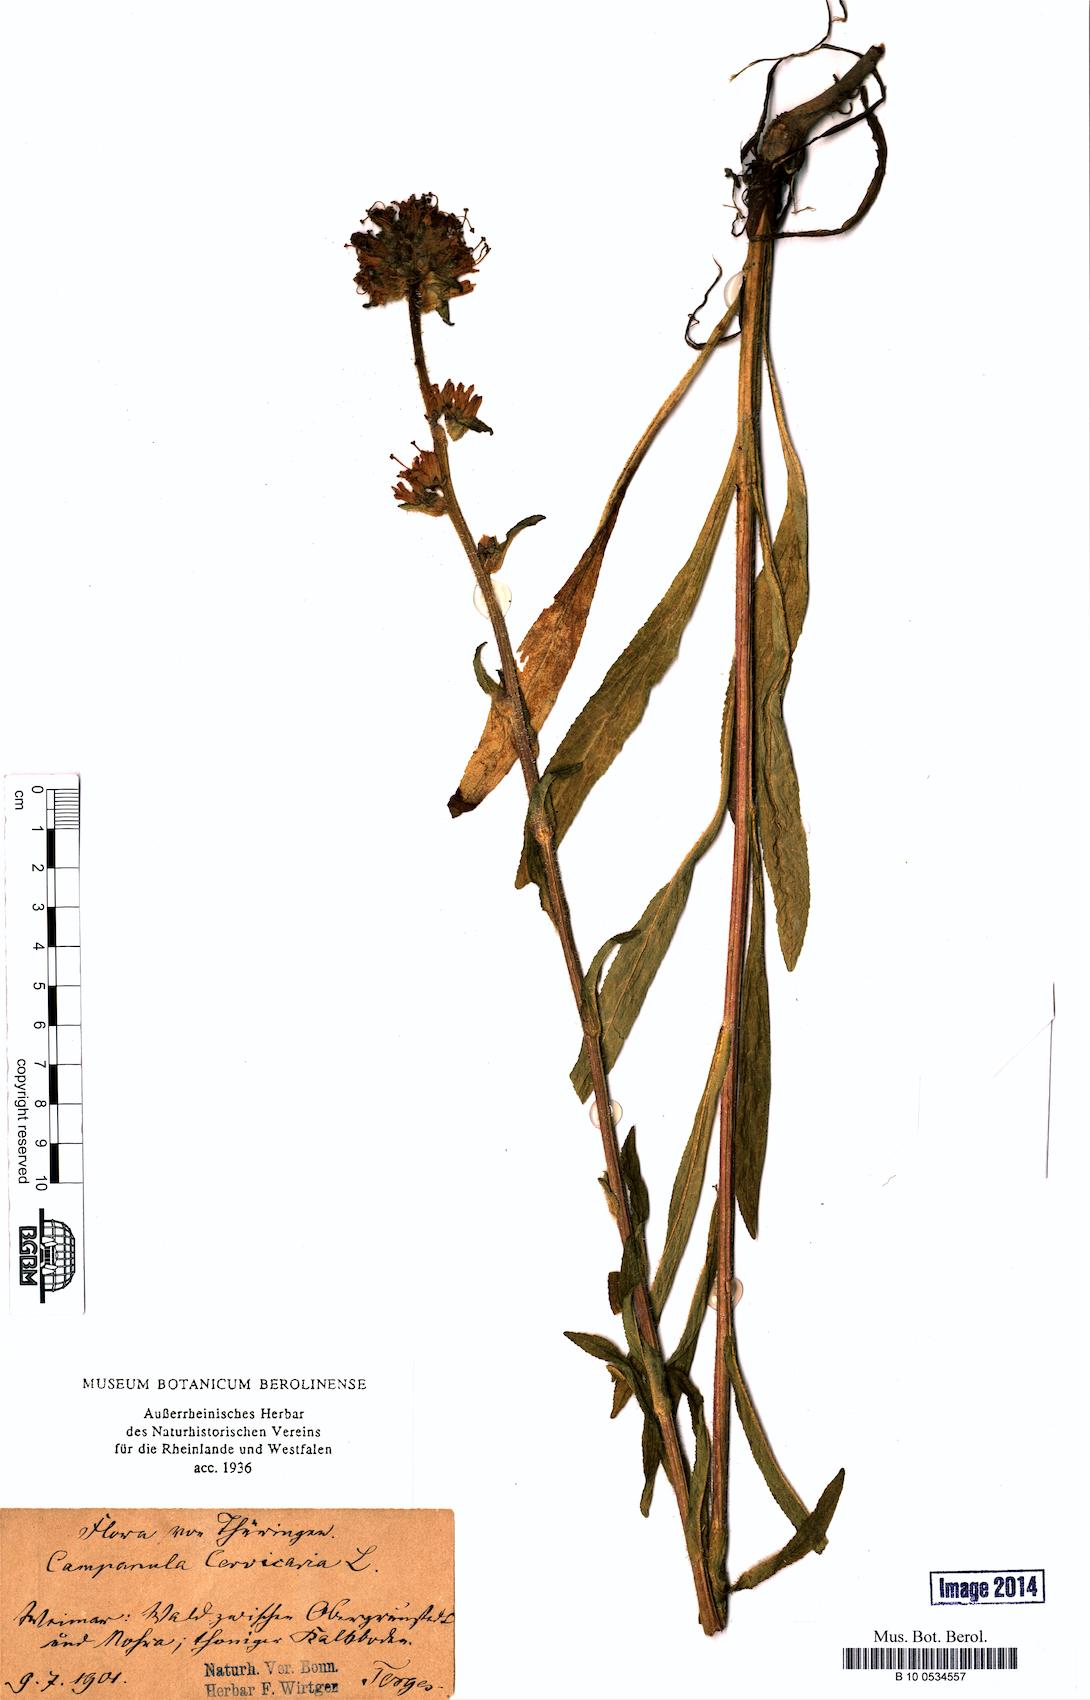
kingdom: Plantae
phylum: Tracheophyta
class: Magnoliopsida
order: Asterales
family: Campanulaceae
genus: Campanula
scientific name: Campanula cervicaria
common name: Bristly bellflower
